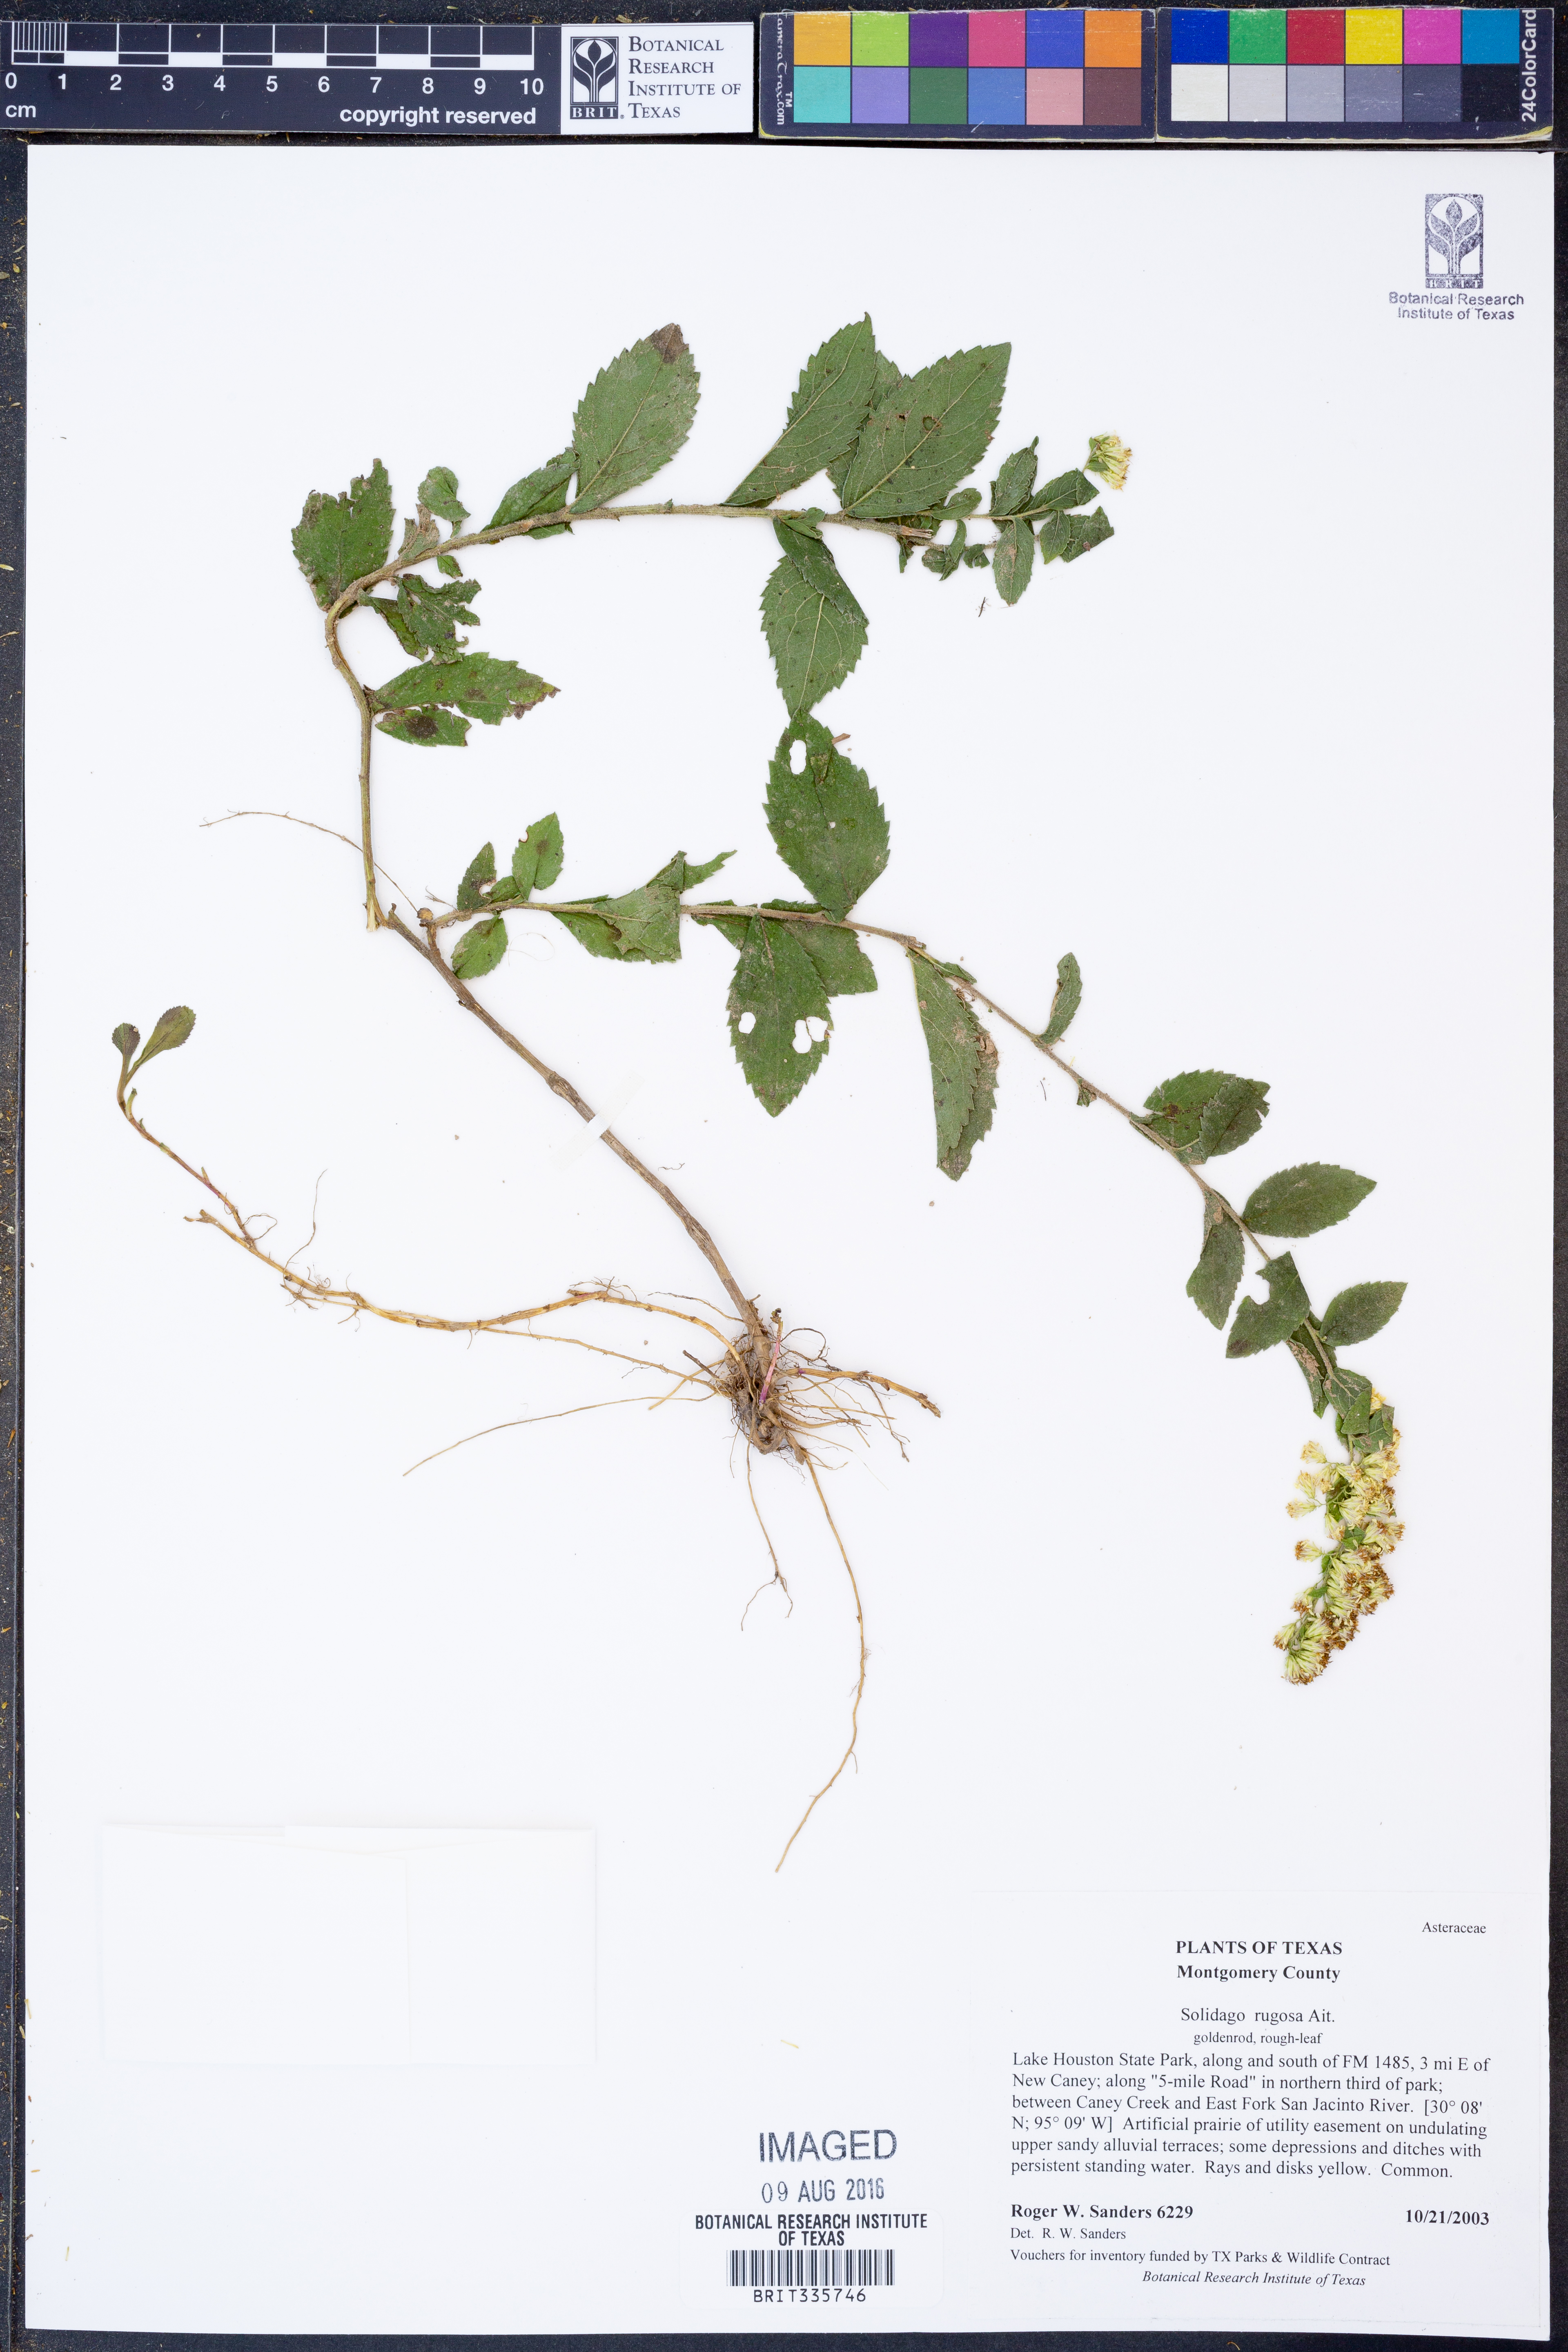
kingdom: Plantae
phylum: Tracheophyta
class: Magnoliopsida
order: Asterales
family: Asteraceae
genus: Solidago
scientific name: Solidago rugosa
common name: Rough-stemmed goldenrod
